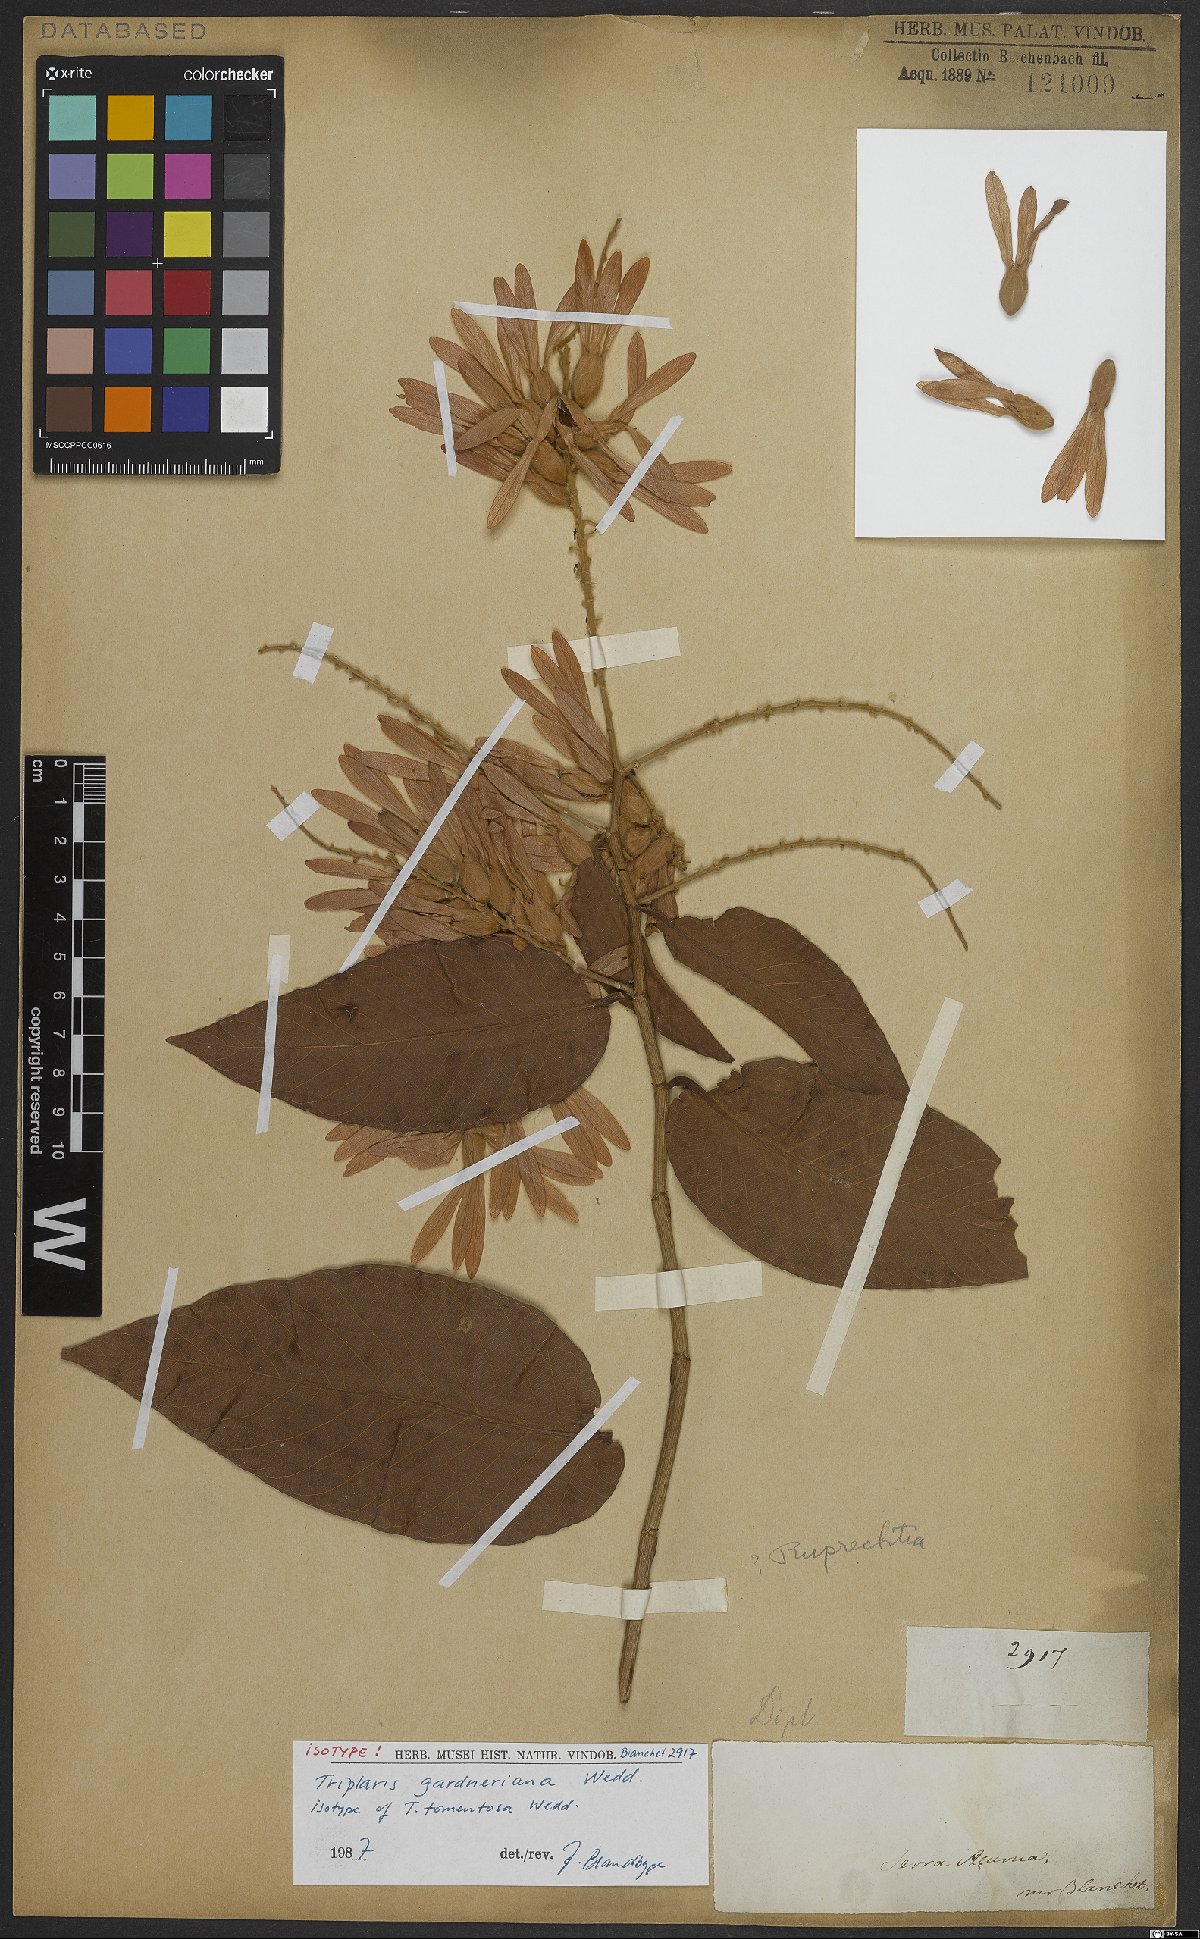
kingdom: Plantae
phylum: Tracheophyta
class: Magnoliopsida
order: Caryophyllales
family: Polygonaceae
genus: Triplaris
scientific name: Triplaris gardneriana
